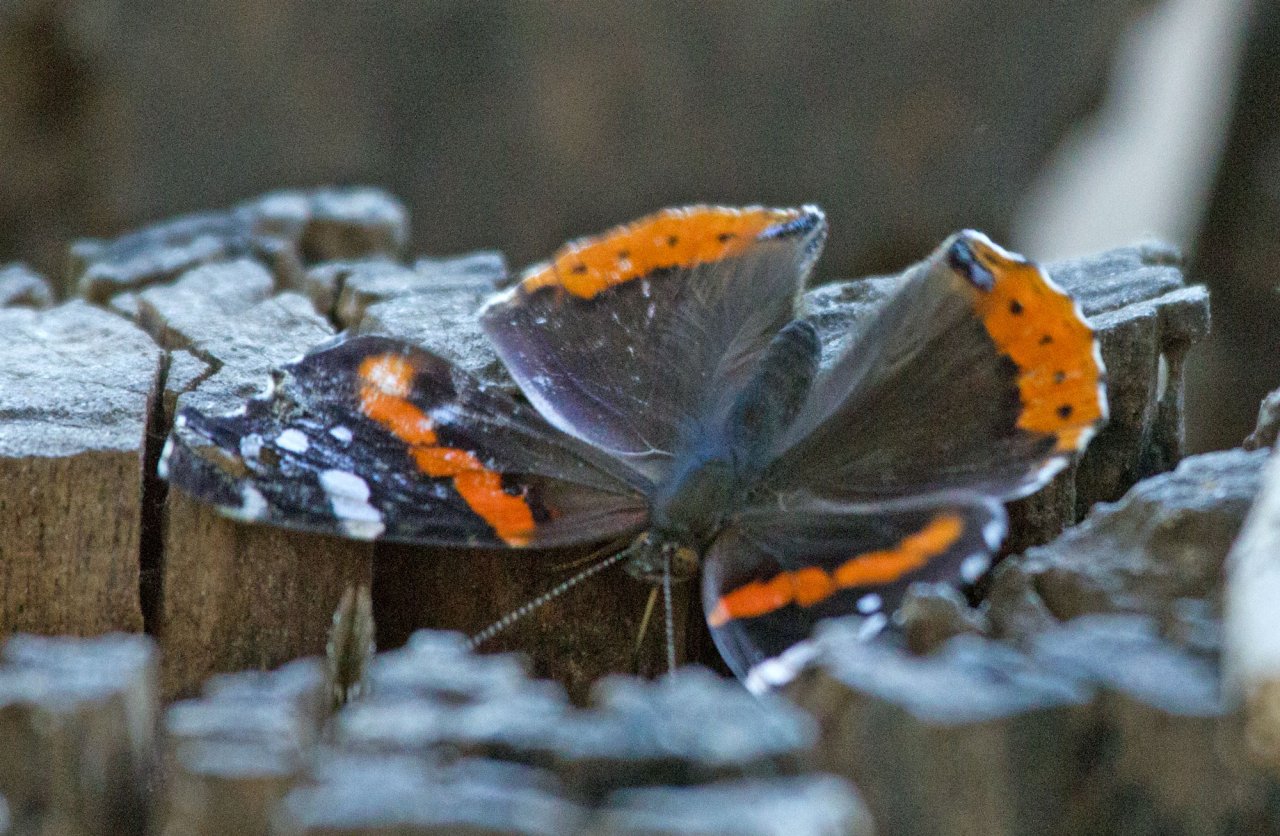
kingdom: Animalia
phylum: Arthropoda
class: Insecta
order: Lepidoptera
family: Nymphalidae
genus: Vanessa
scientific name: Vanessa atalanta
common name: Red Admiral
